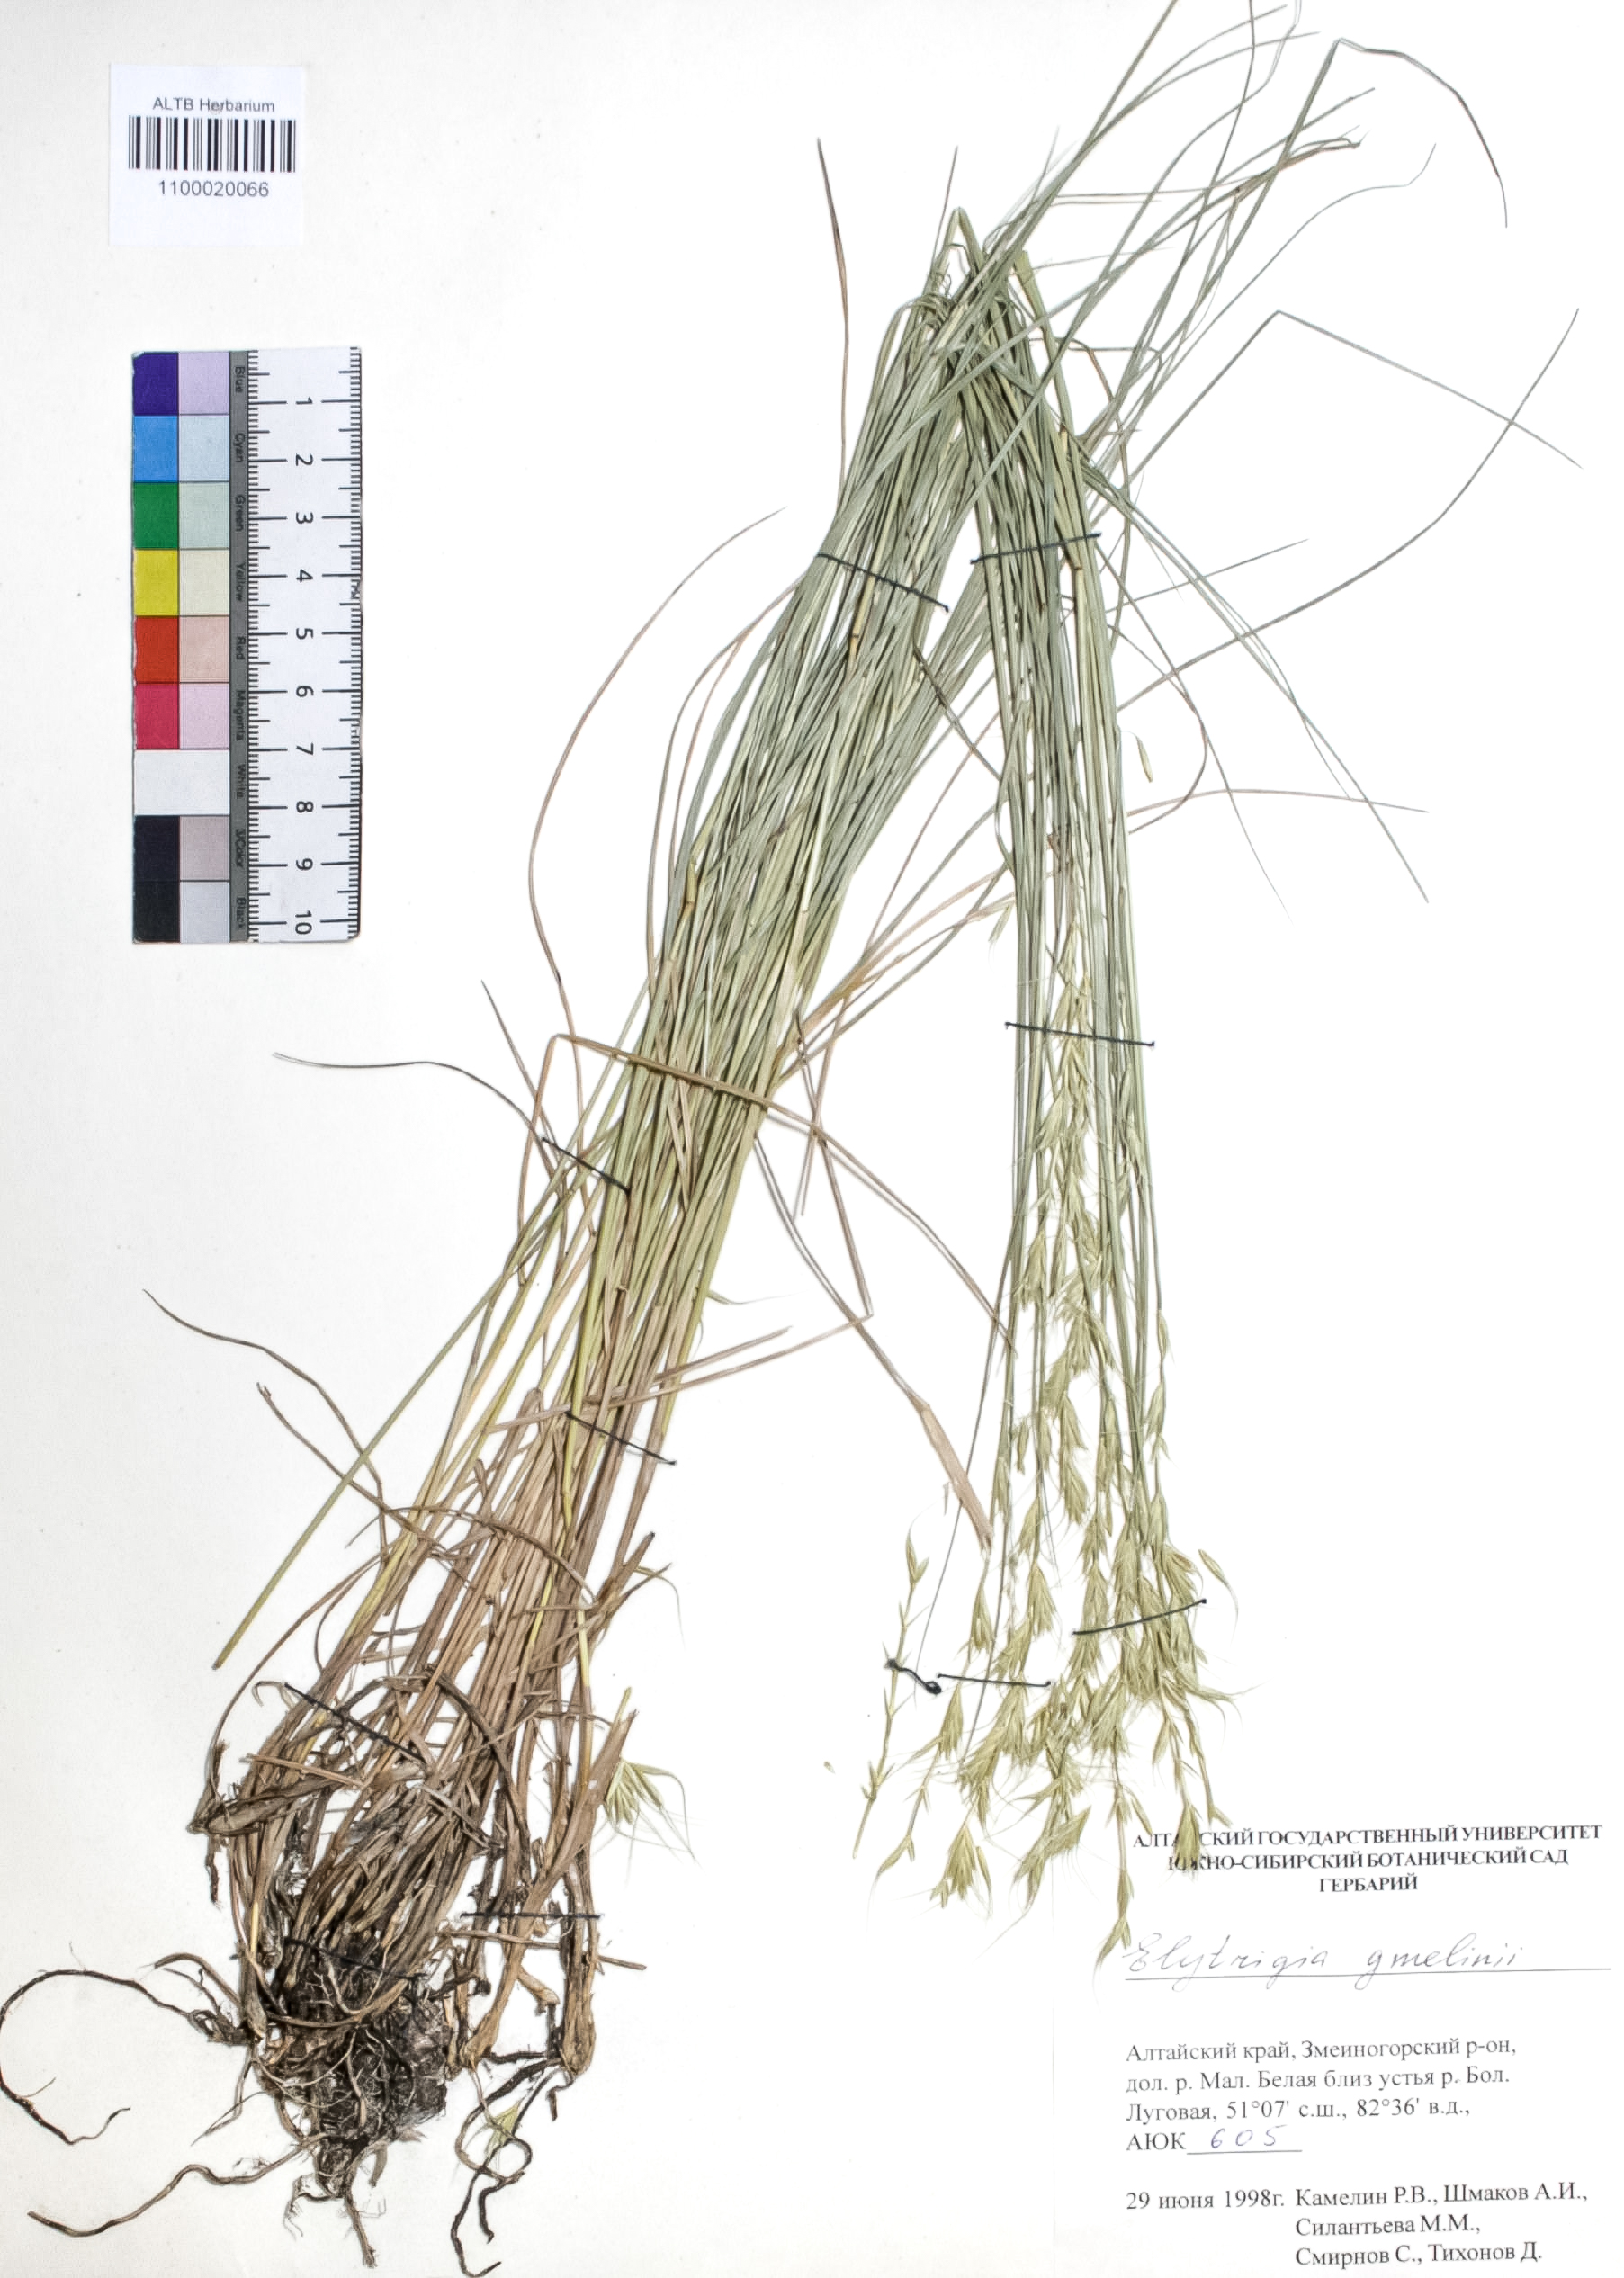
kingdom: Plantae
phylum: Tracheophyta
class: Liliopsida
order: Poales
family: Poaceae
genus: Pseudoroegneria
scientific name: Pseudoroegneria reflexiaristata
